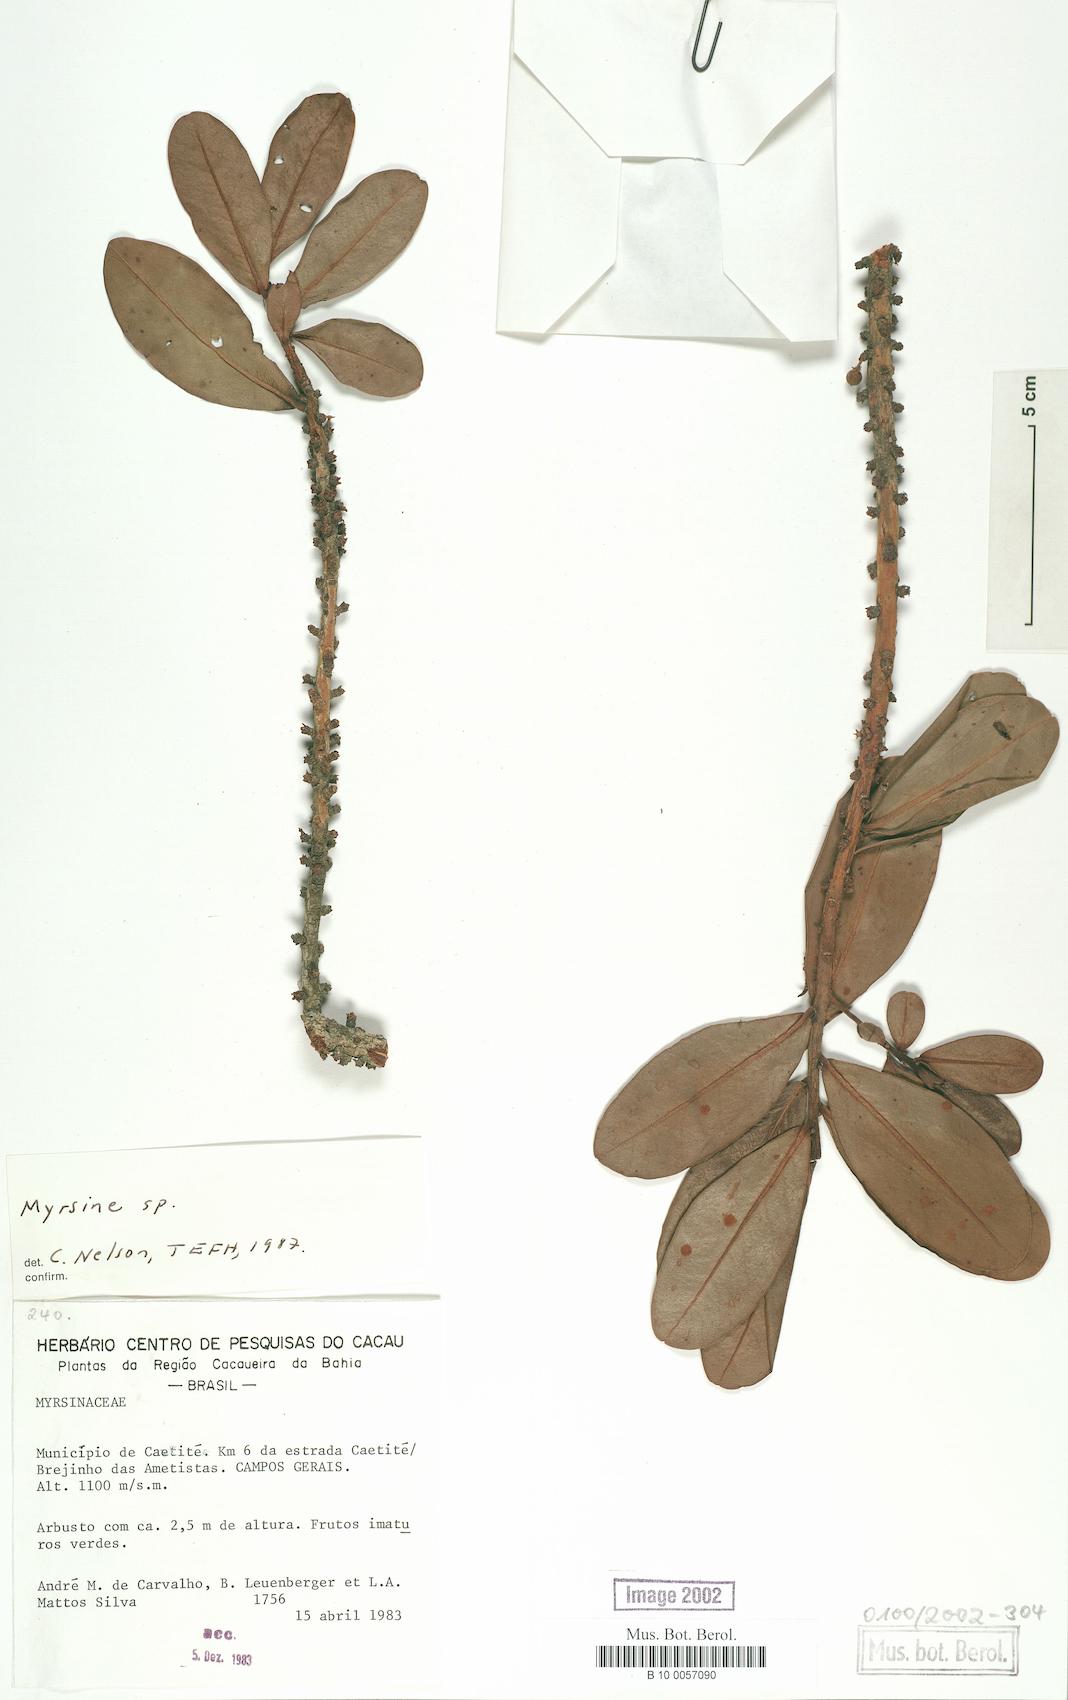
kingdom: Plantae
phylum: Tracheophyta
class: Magnoliopsida
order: Ericales
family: Primulaceae
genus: Myrsine
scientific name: Myrsine
